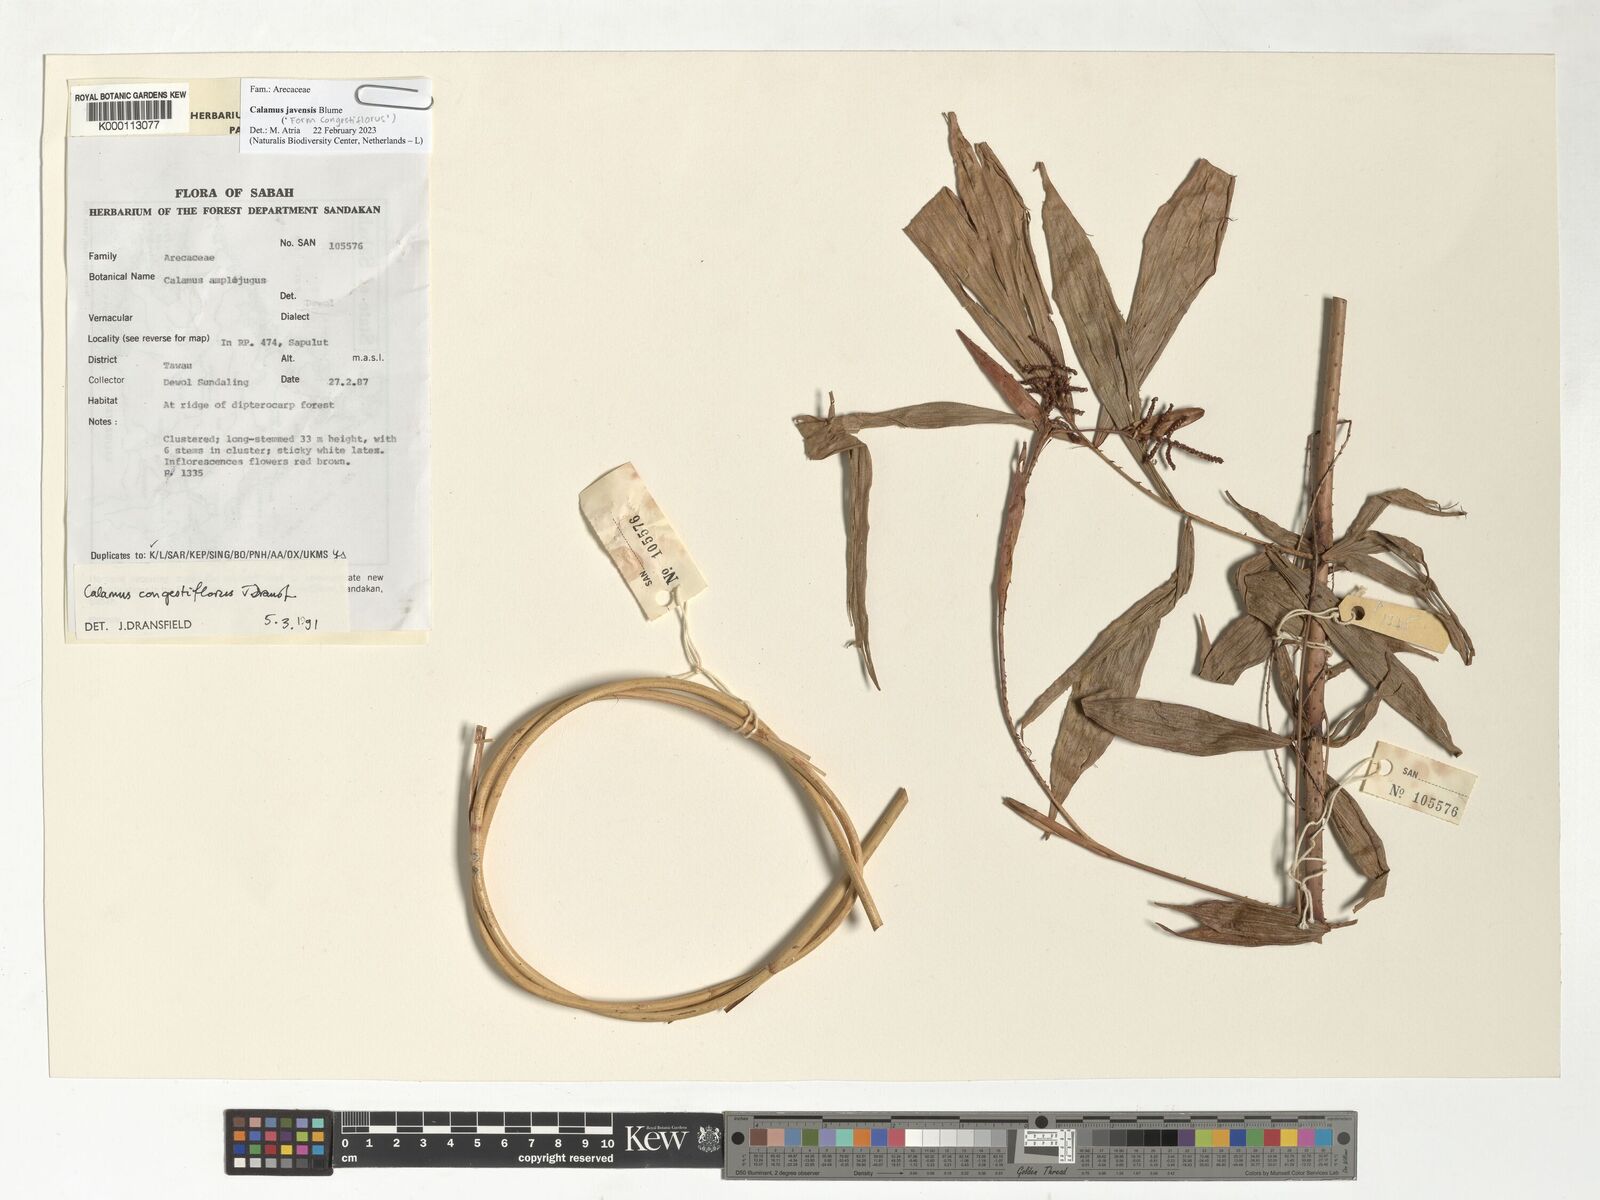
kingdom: Plantae
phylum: Tracheophyta
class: Liliopsida
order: Arecales
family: Arecaceae
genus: Calamus
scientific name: Calamus javensis
